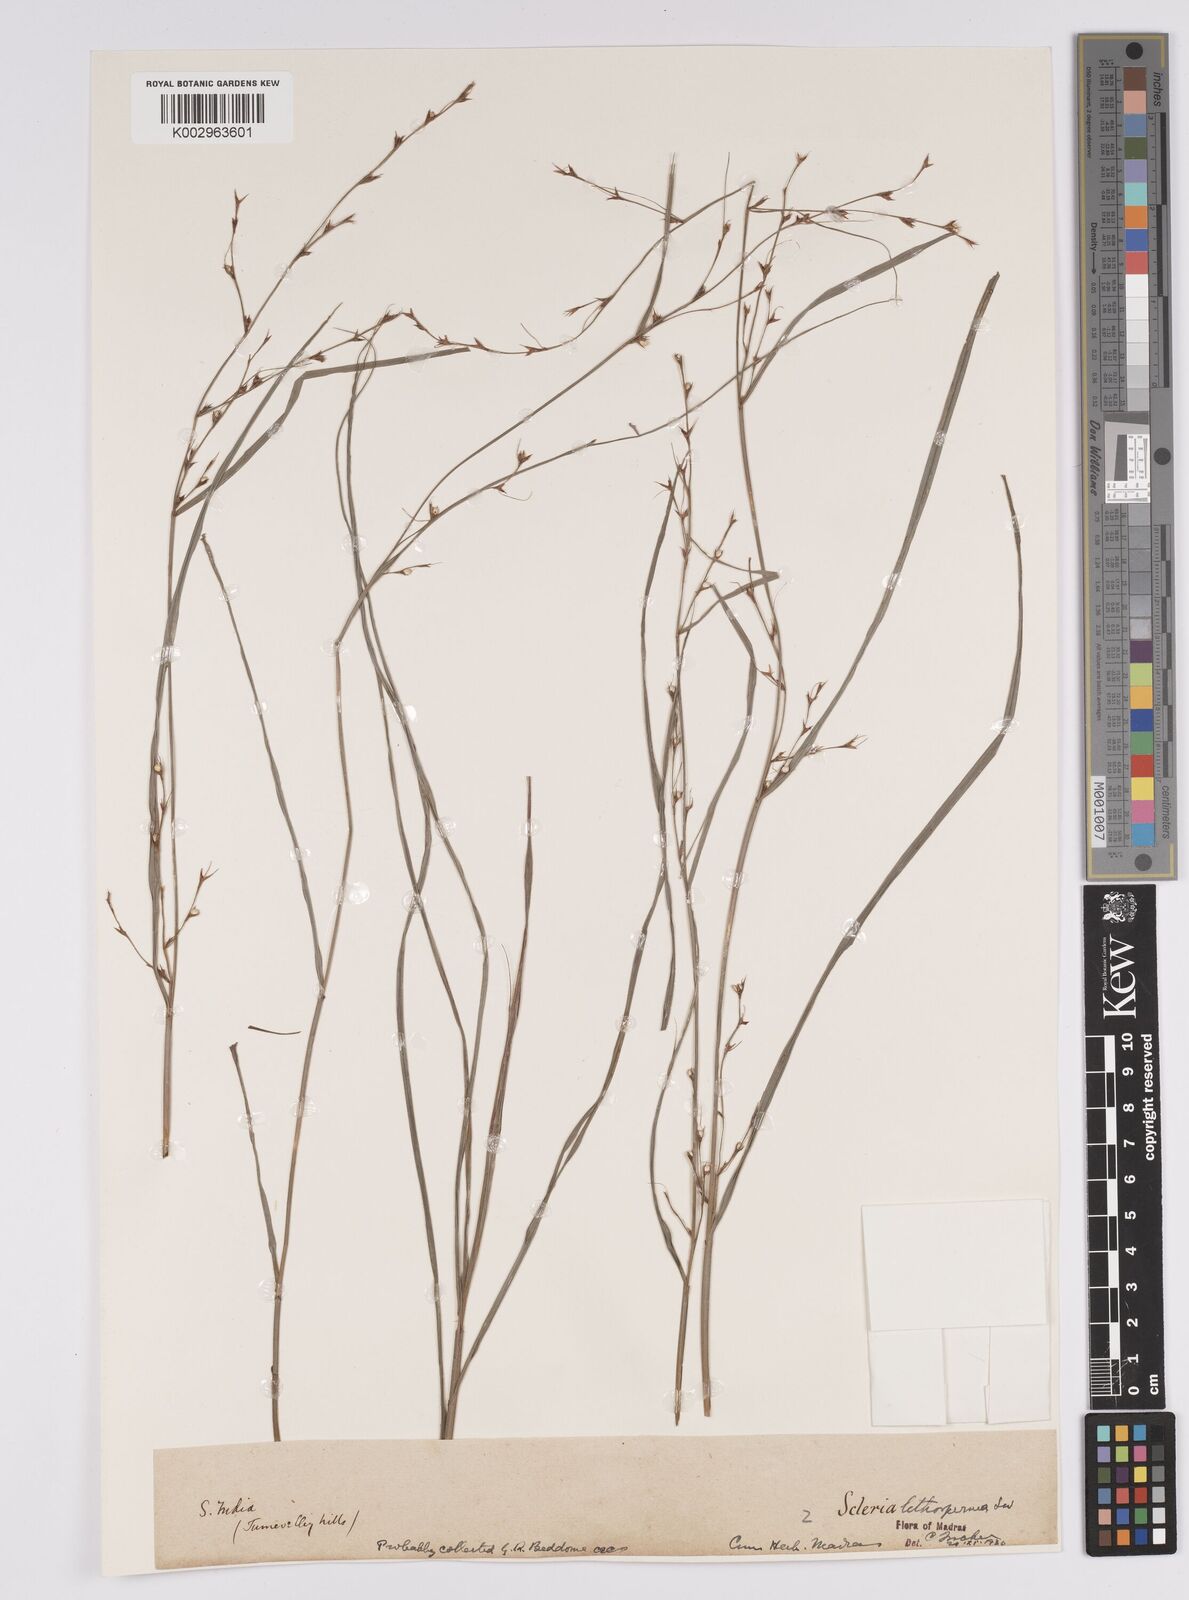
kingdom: Plantae
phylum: Tracheophyta
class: Liliopsida
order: Poales
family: Cyperaceae
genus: Scleria
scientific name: Scleria lithosperma
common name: Florida keys nut-rush
